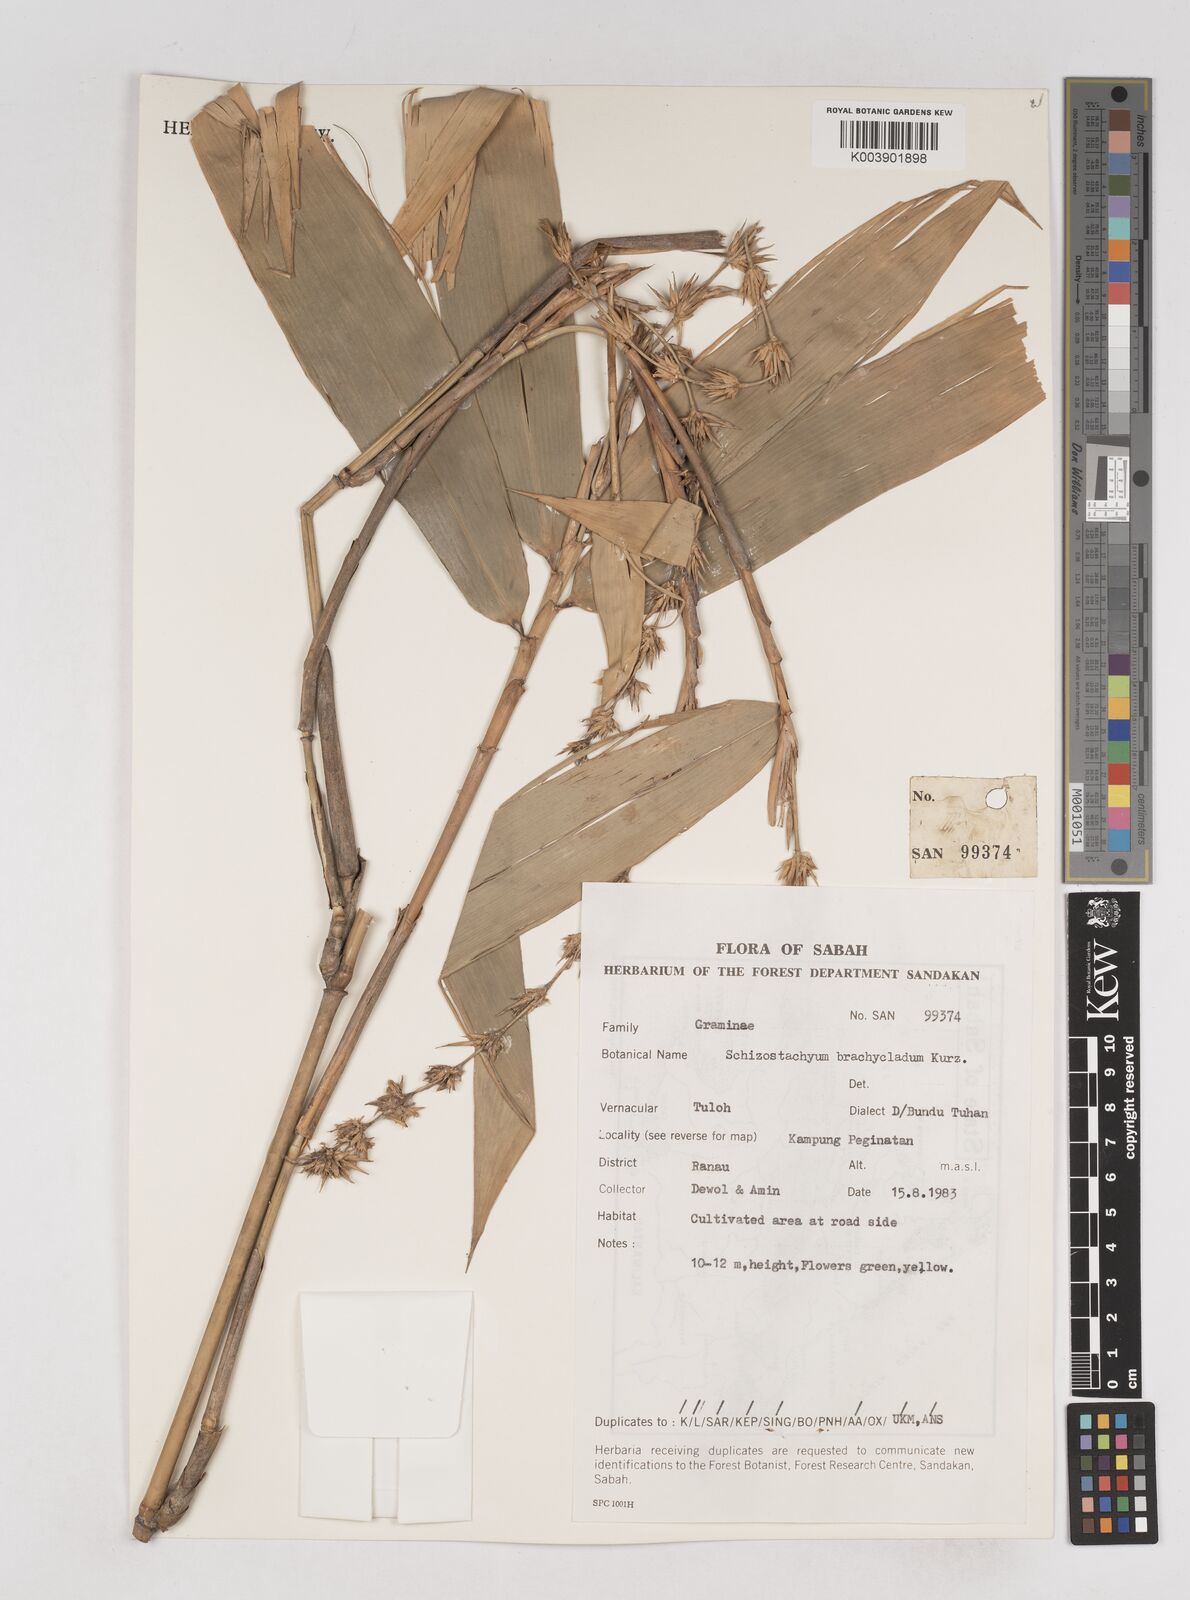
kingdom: Plantae
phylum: Tracheophyta
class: Liliopsida
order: Poales
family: Poaceae
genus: Schizostachyum
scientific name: Schizostachyum brachycladum
